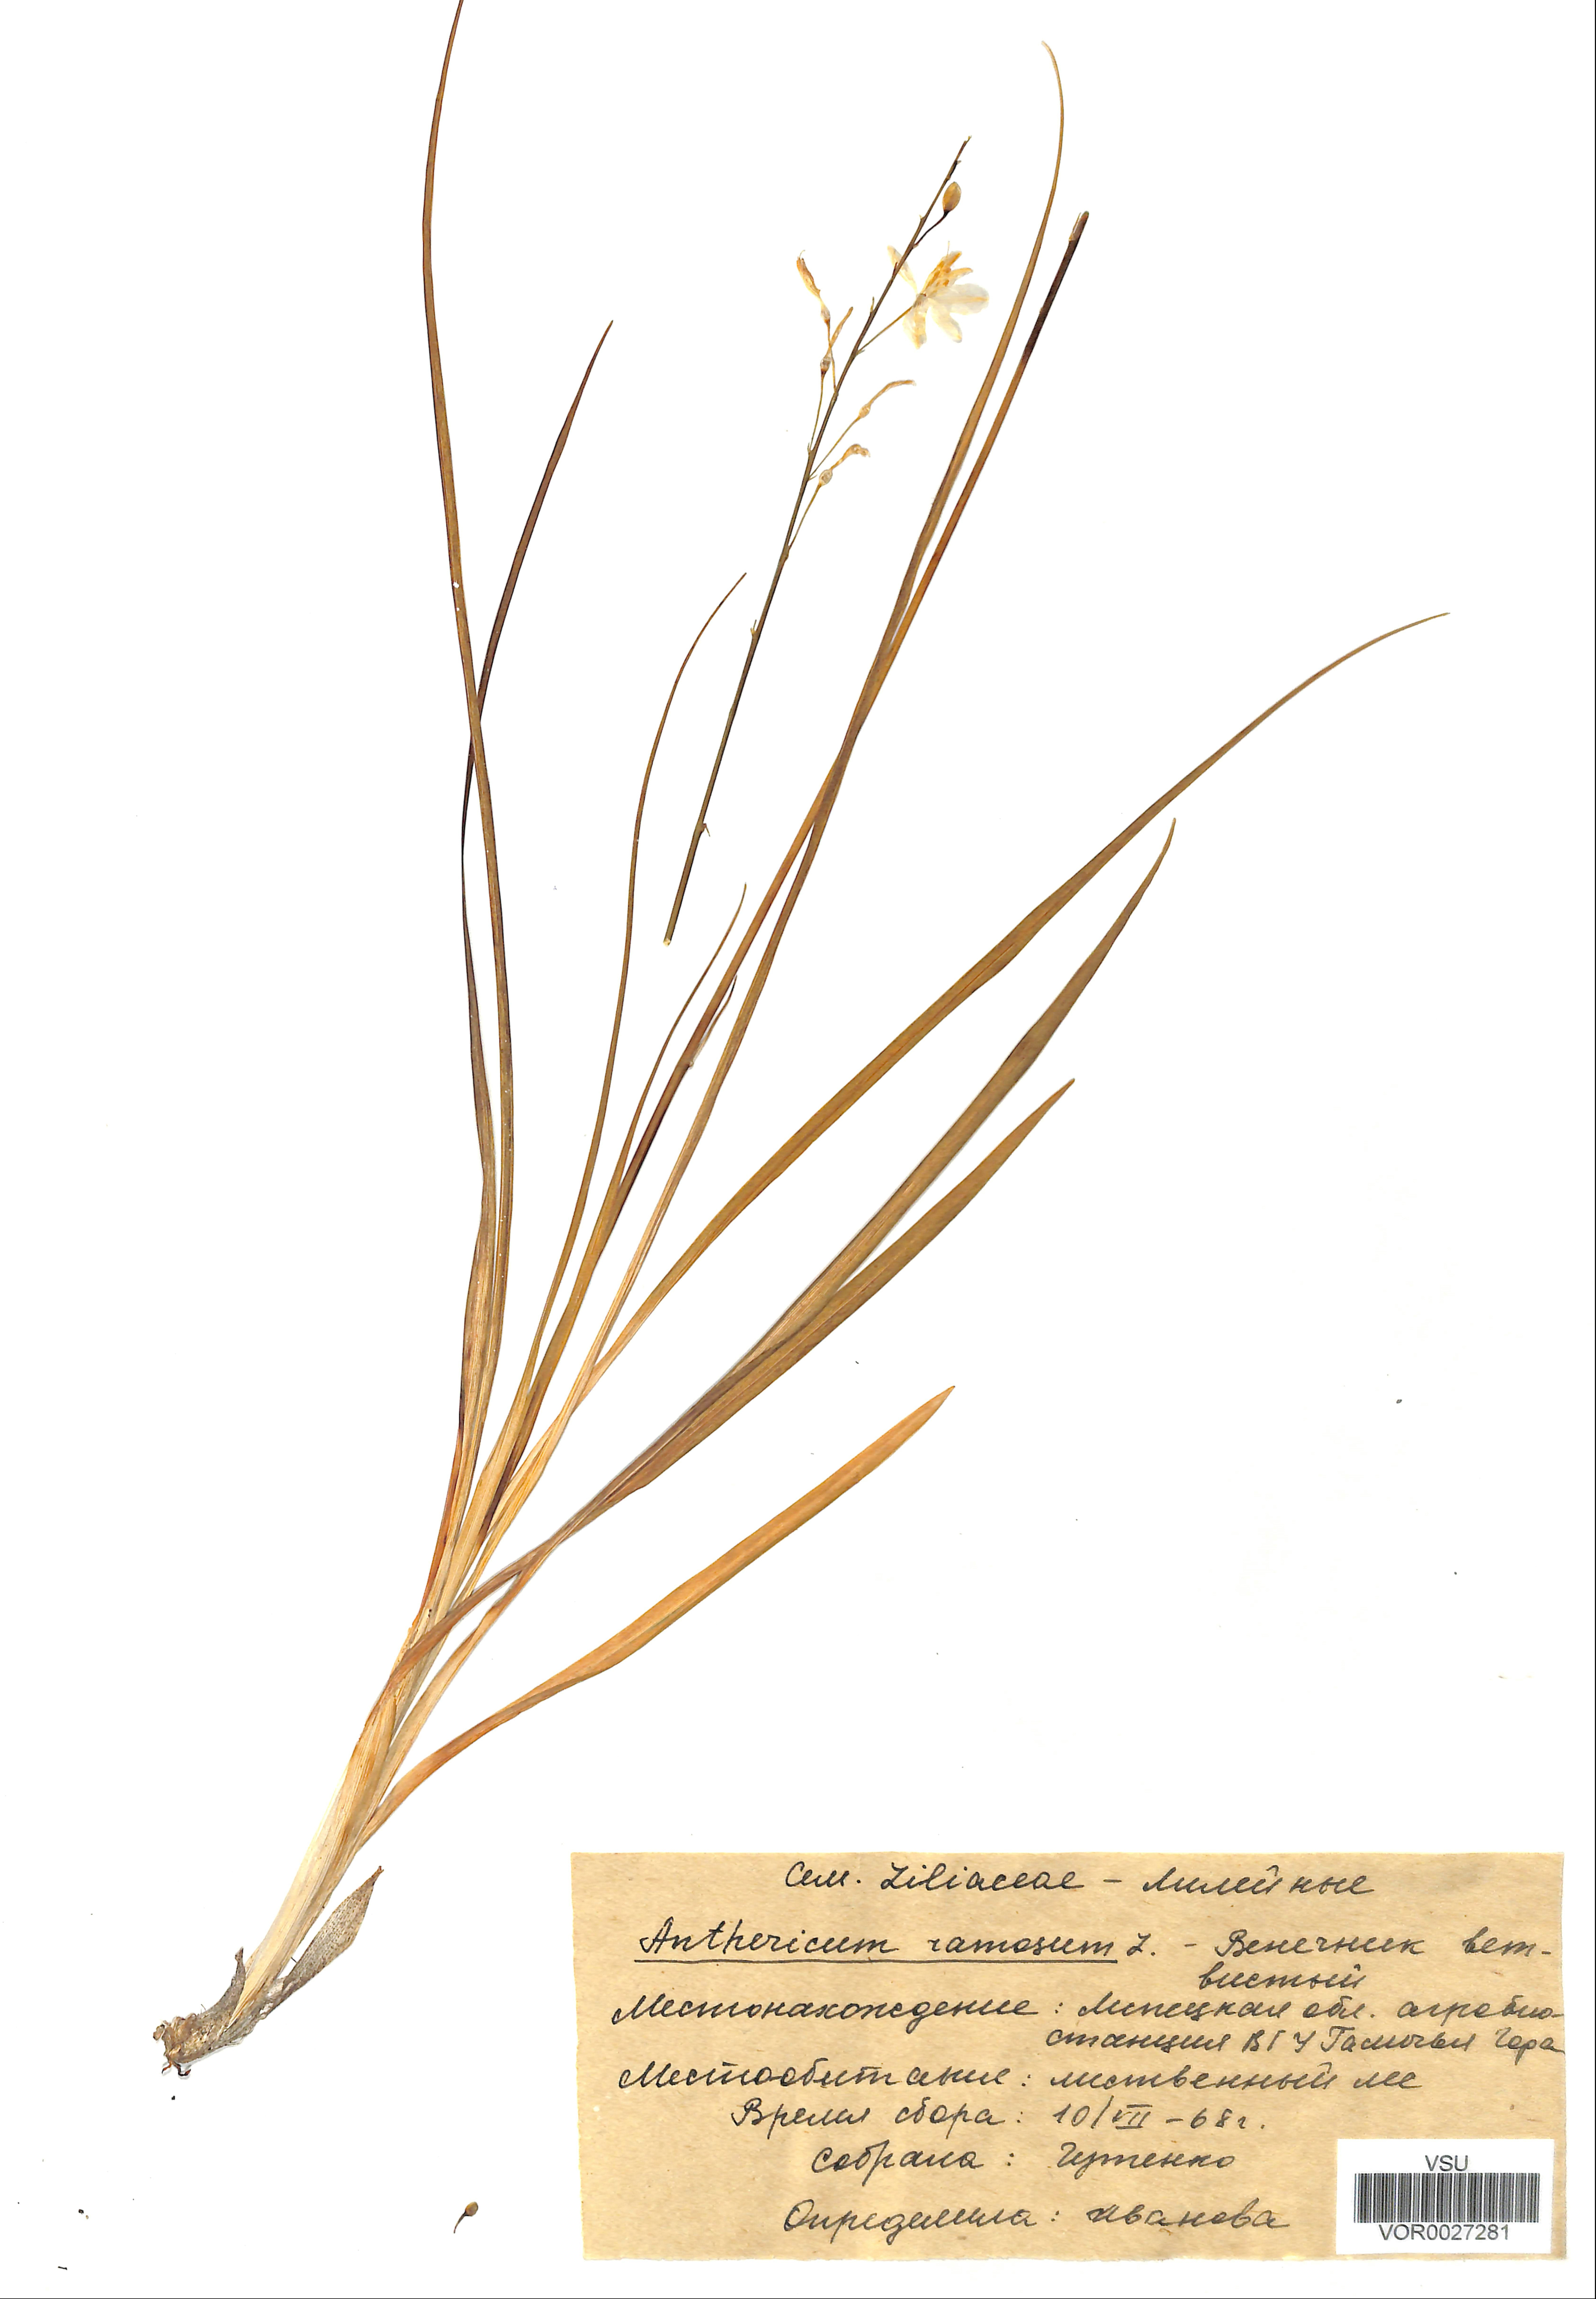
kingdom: Plantae
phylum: Tracheophyta
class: Liliopsida
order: Asparagales
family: Asparagaceae
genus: Anthericum
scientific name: Anthericum ramosum
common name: Branched st. bernard's-lily
